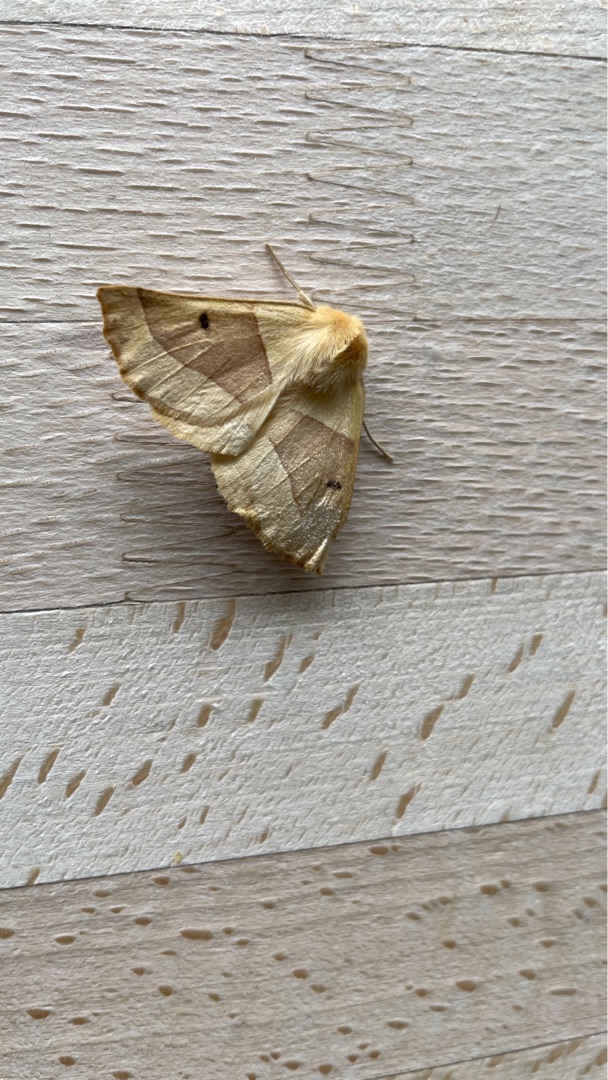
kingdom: Animalia
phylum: Arthropoda
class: Insecta
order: Lepidoptera
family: Geometridae
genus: Crocallis
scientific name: Crocallis elinguaria
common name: Okkergul rovmåler
